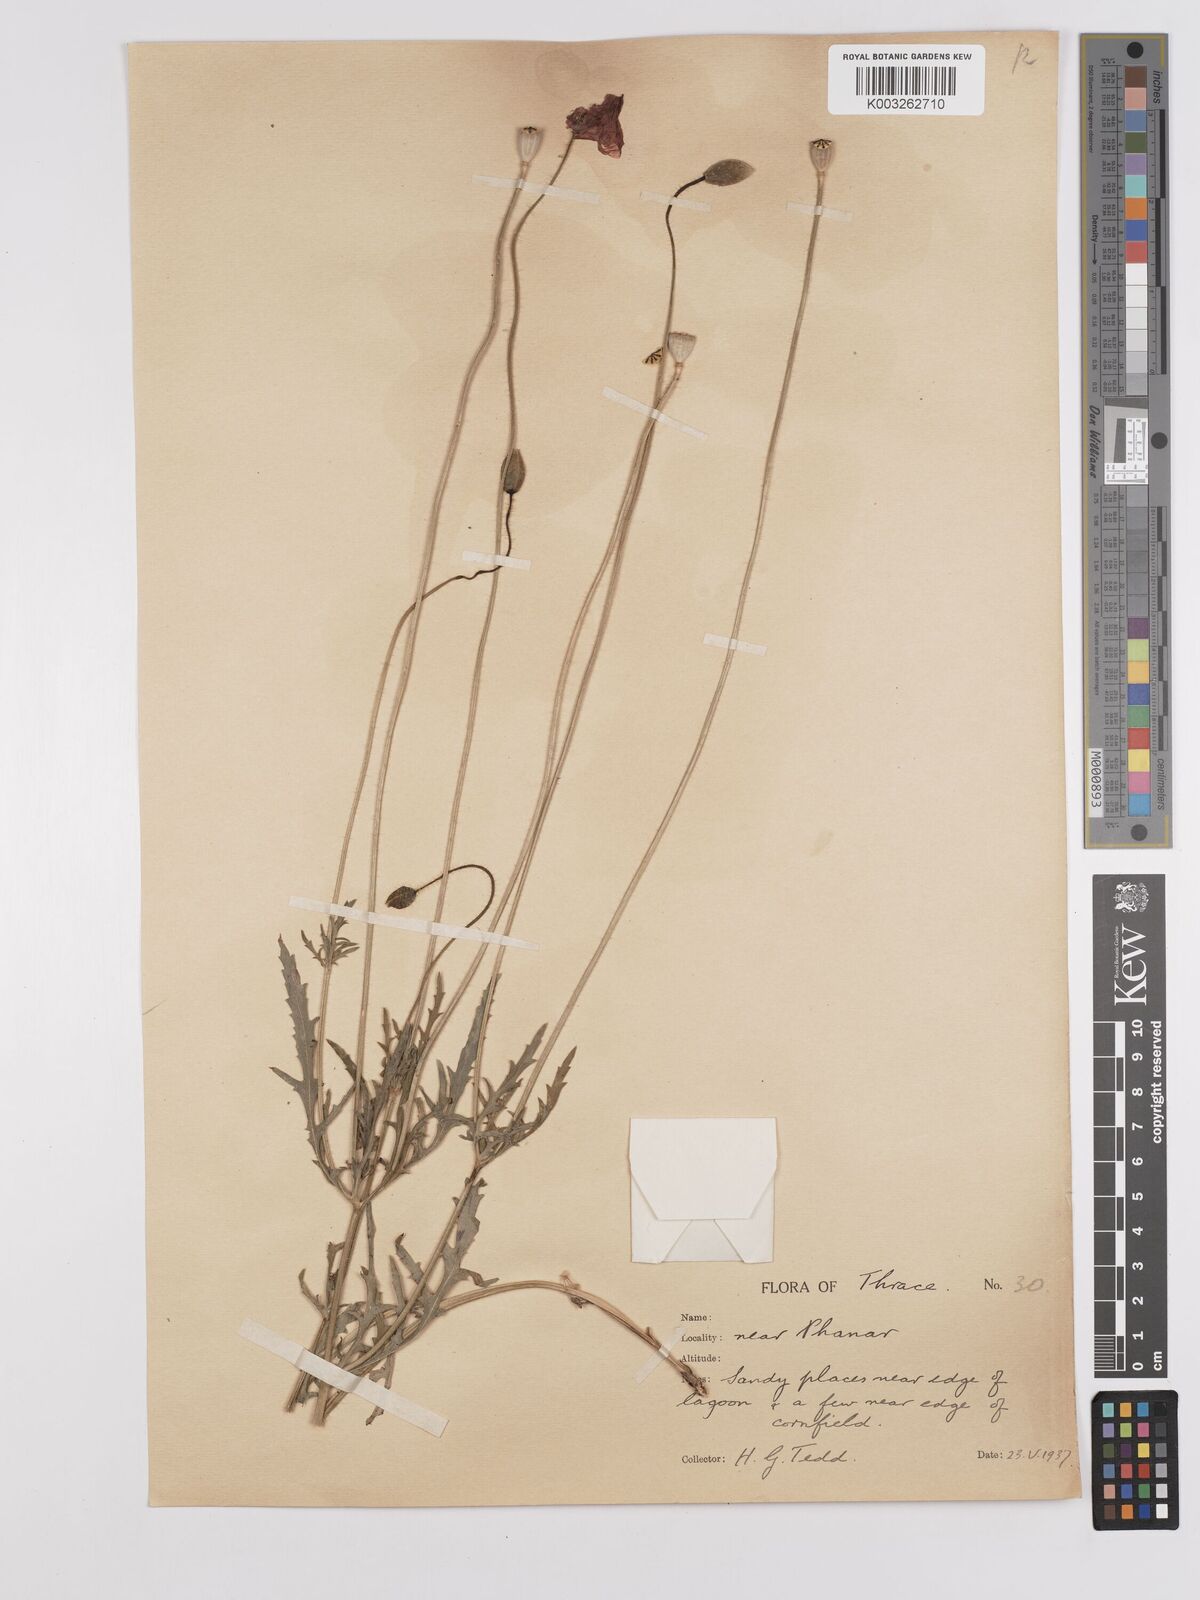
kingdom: Plantae
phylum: Tracheophyta
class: Magnoliopsida
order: Ranunculales
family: Papaveraceae
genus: Papaver
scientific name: Papaver
